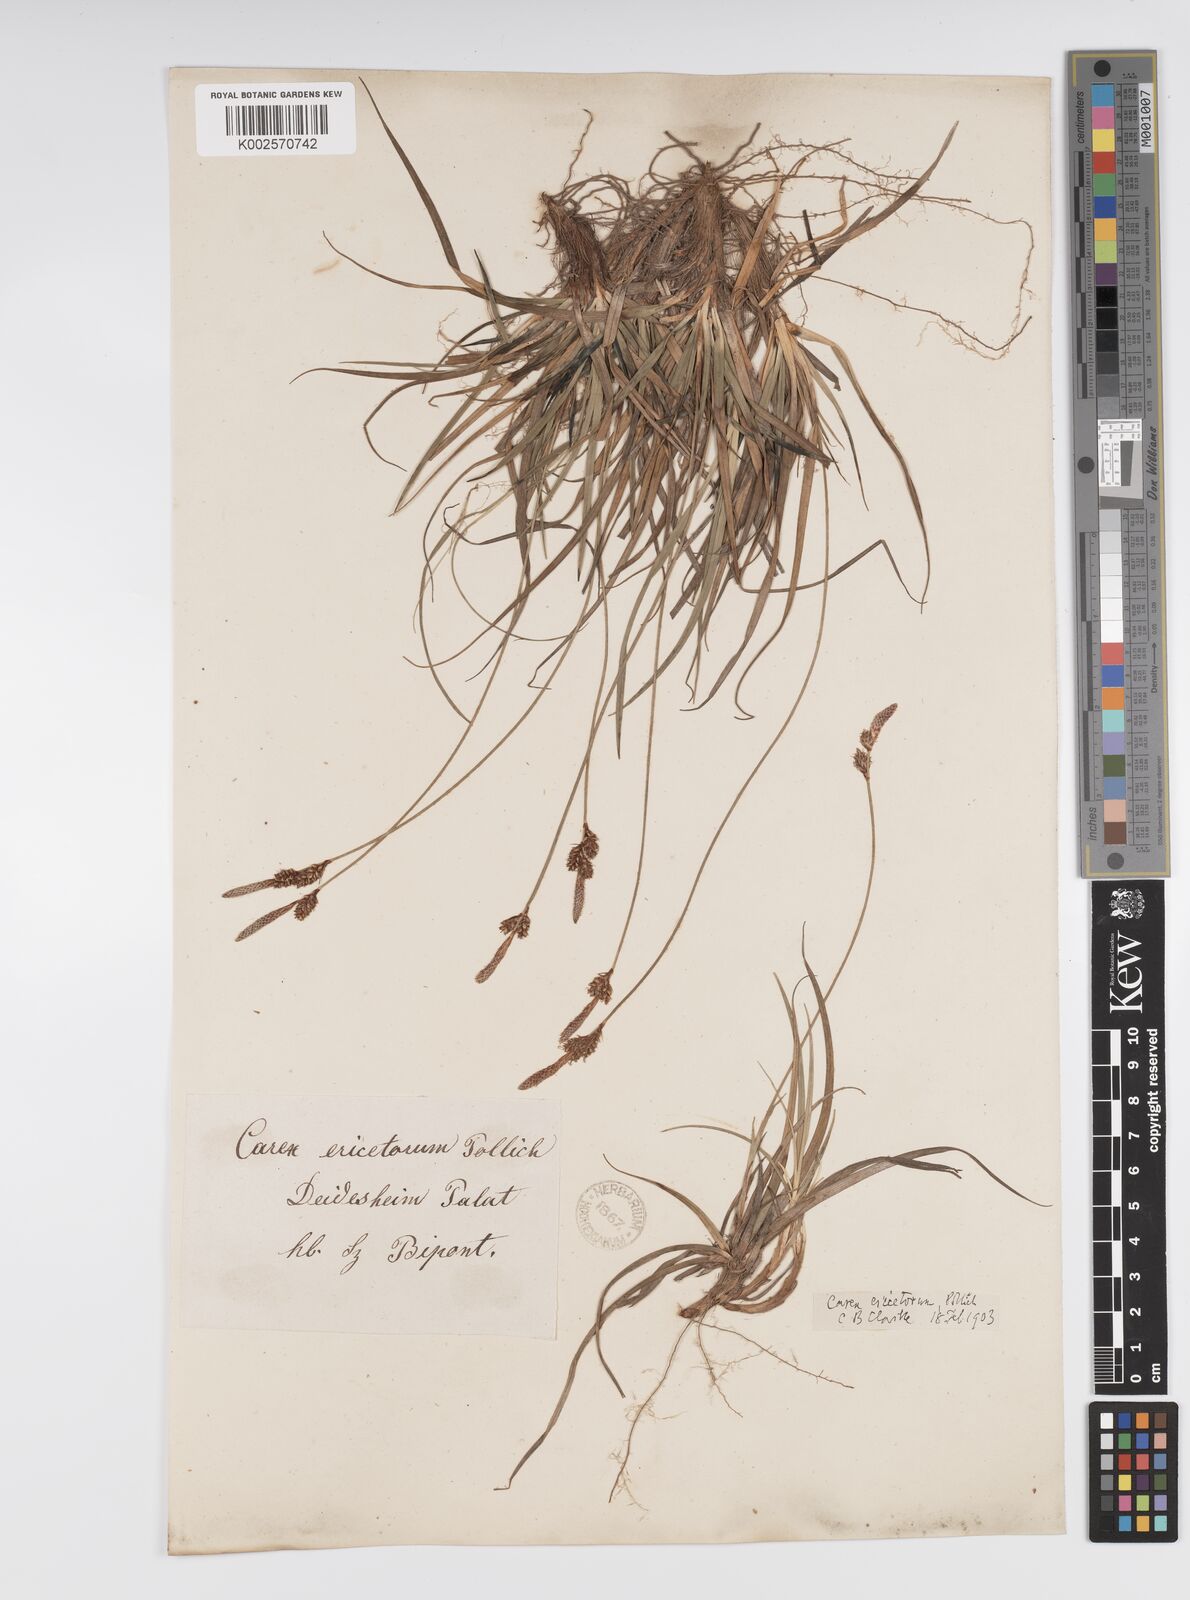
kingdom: Plantae
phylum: Tracheophyta
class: Liliopsida
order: Poales
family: Cyperaceae
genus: Carex
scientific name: Carex ericetorum
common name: Rare spring-sedge
